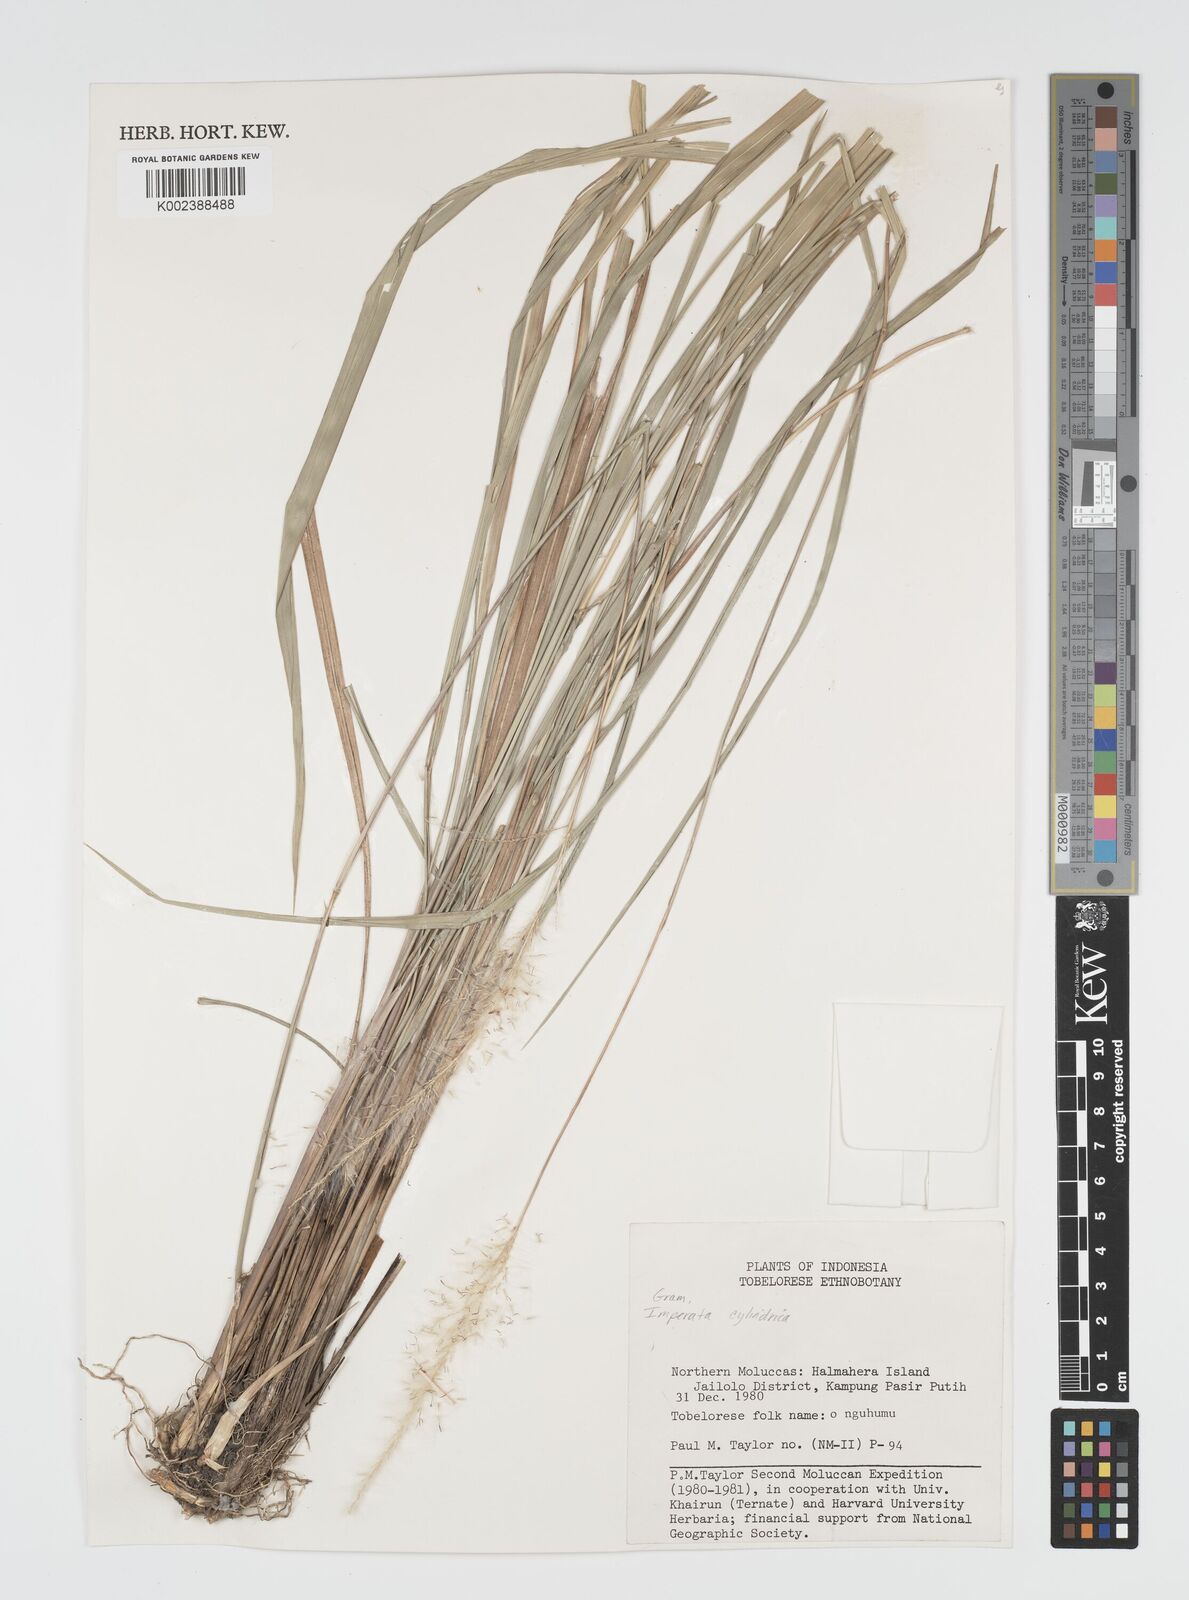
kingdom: Plantae
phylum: Tracheophyta
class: Liliopsida
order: Poales
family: Poaceae
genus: Imperata
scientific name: Imperata cylindrica
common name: Cogongrass
